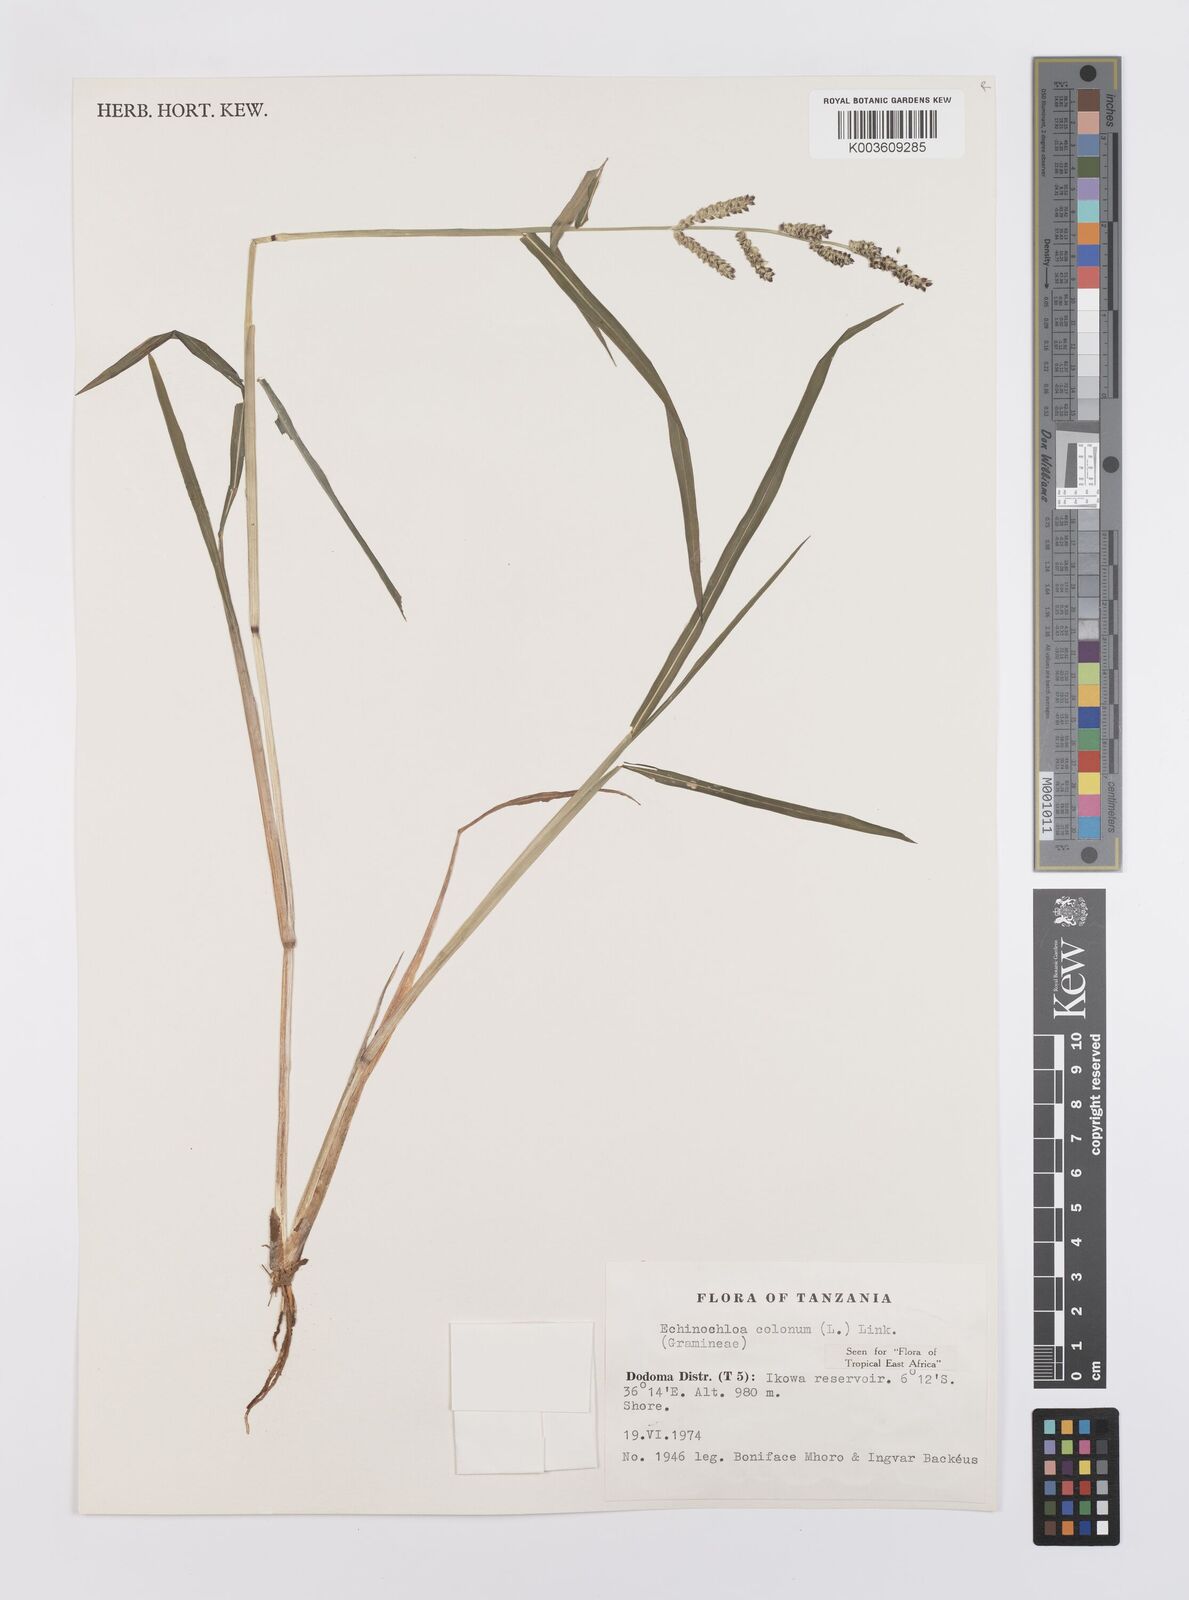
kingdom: Plantae
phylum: Tracheophyta
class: Liliopsida
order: Poales
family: Poaceae
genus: Echinochloa
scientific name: Echinochloa colonum
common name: Jungle rice
